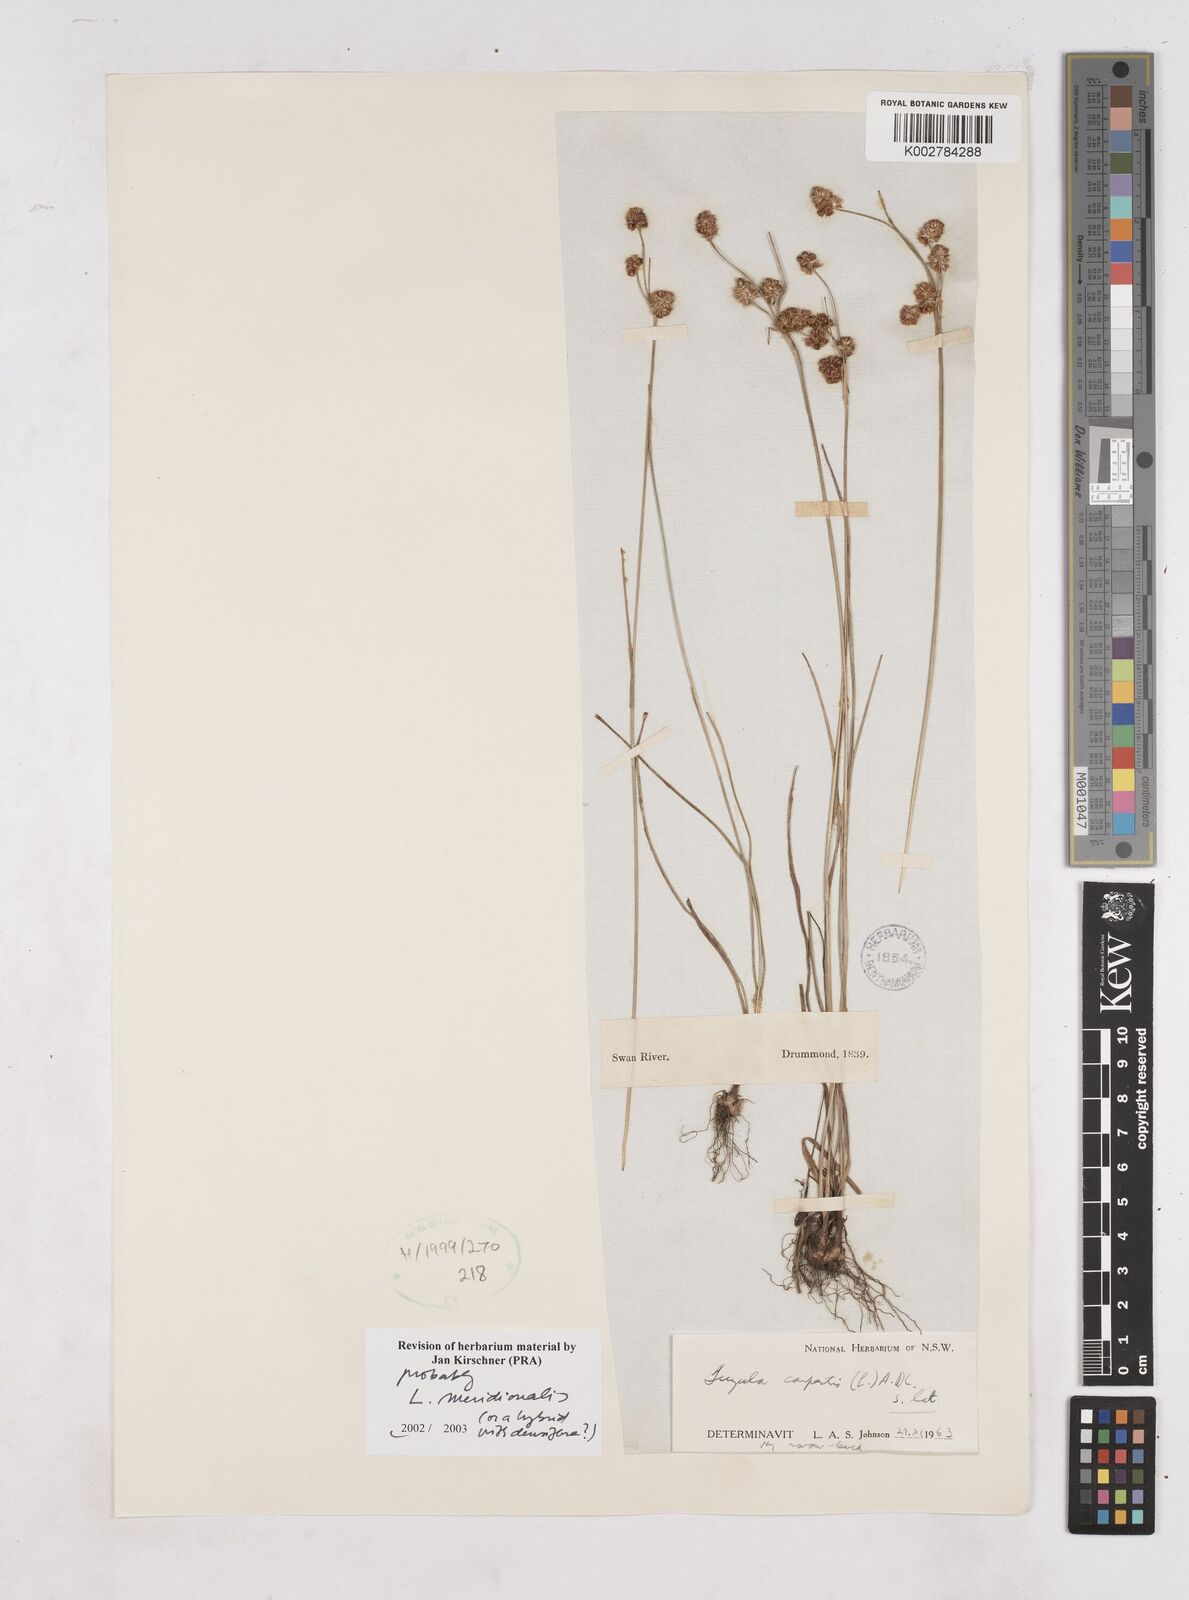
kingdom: Plantae
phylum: Tracheophyta
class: Liliopsida
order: Poales
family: Juncaceae
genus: Luzula
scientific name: Luzula meridionalis
